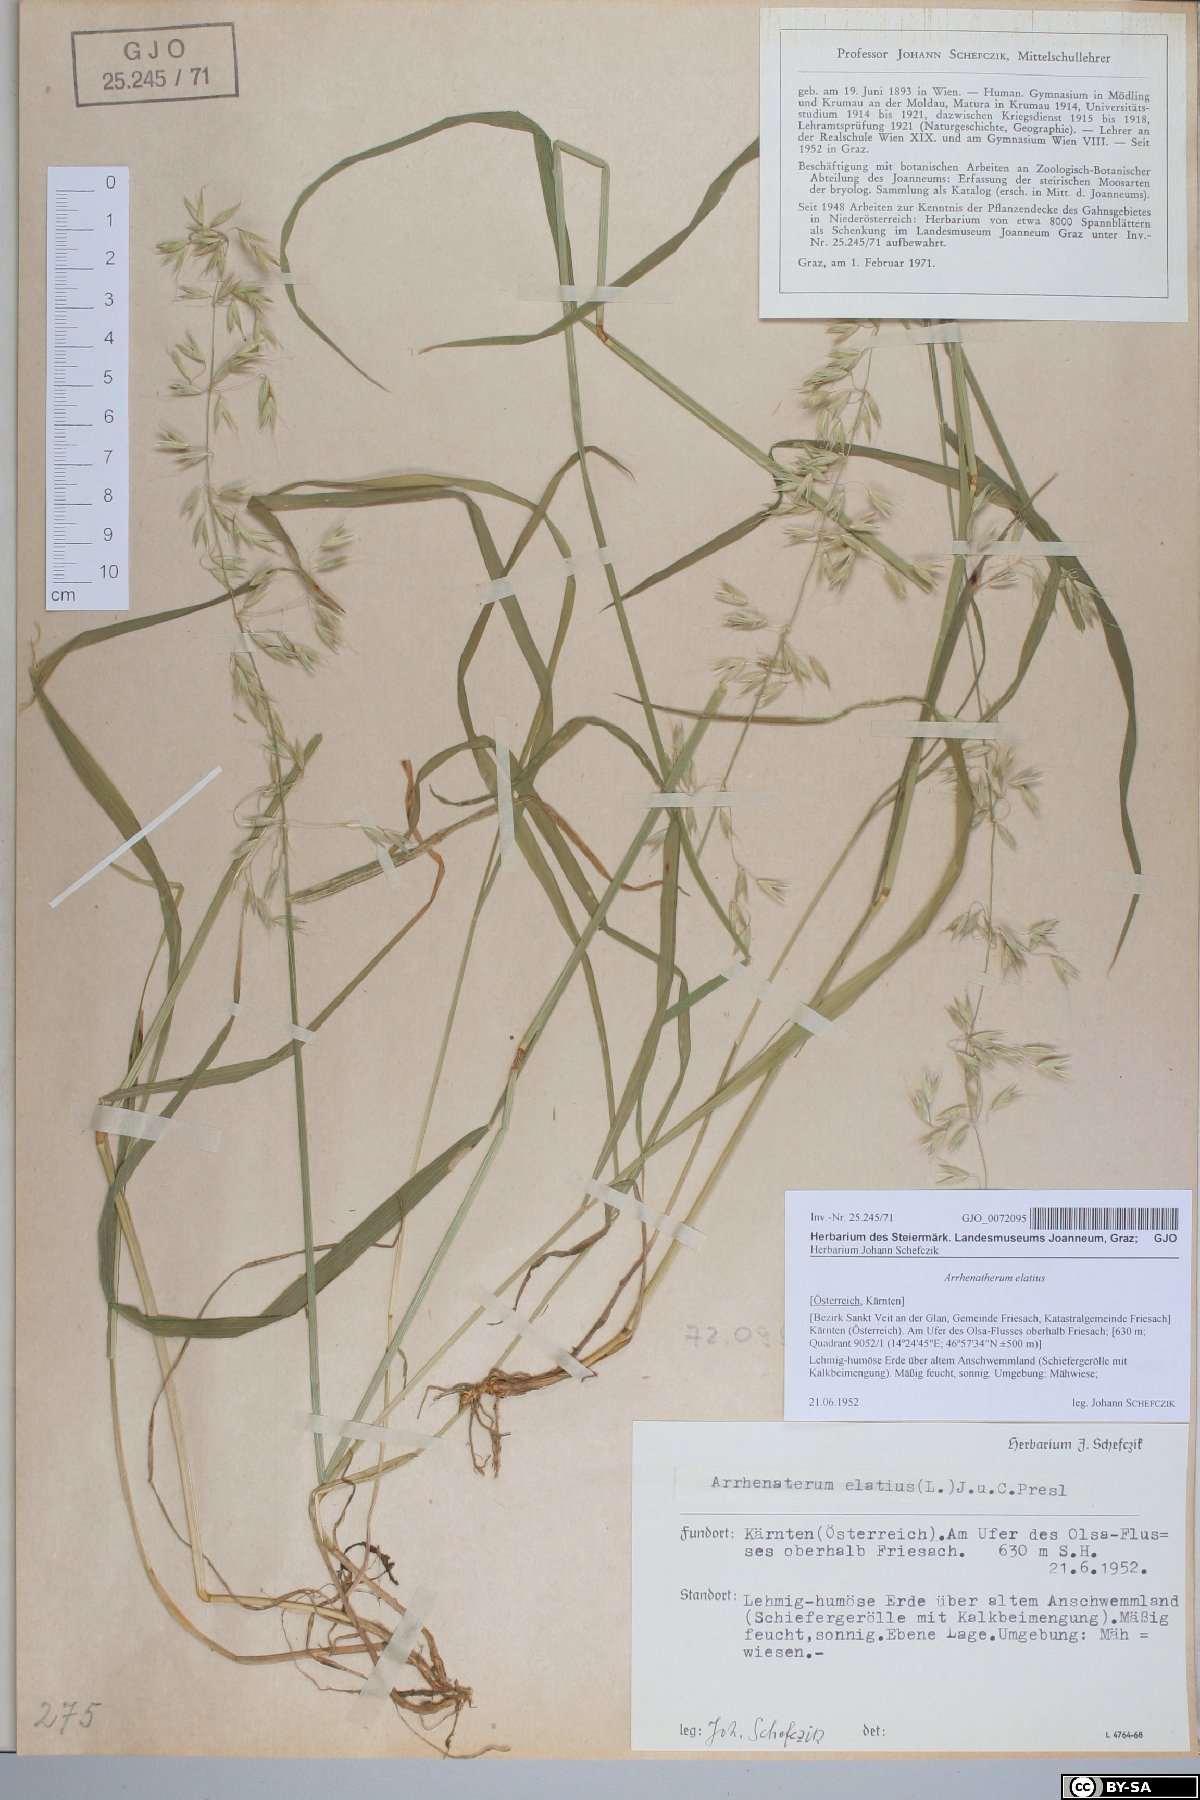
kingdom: Plantae
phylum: Tracheophyta
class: Liliopsida
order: Poales
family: Poaceae
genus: Arrhenatherum
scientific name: Arrhenatherum elatius
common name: Tall oatgrass
